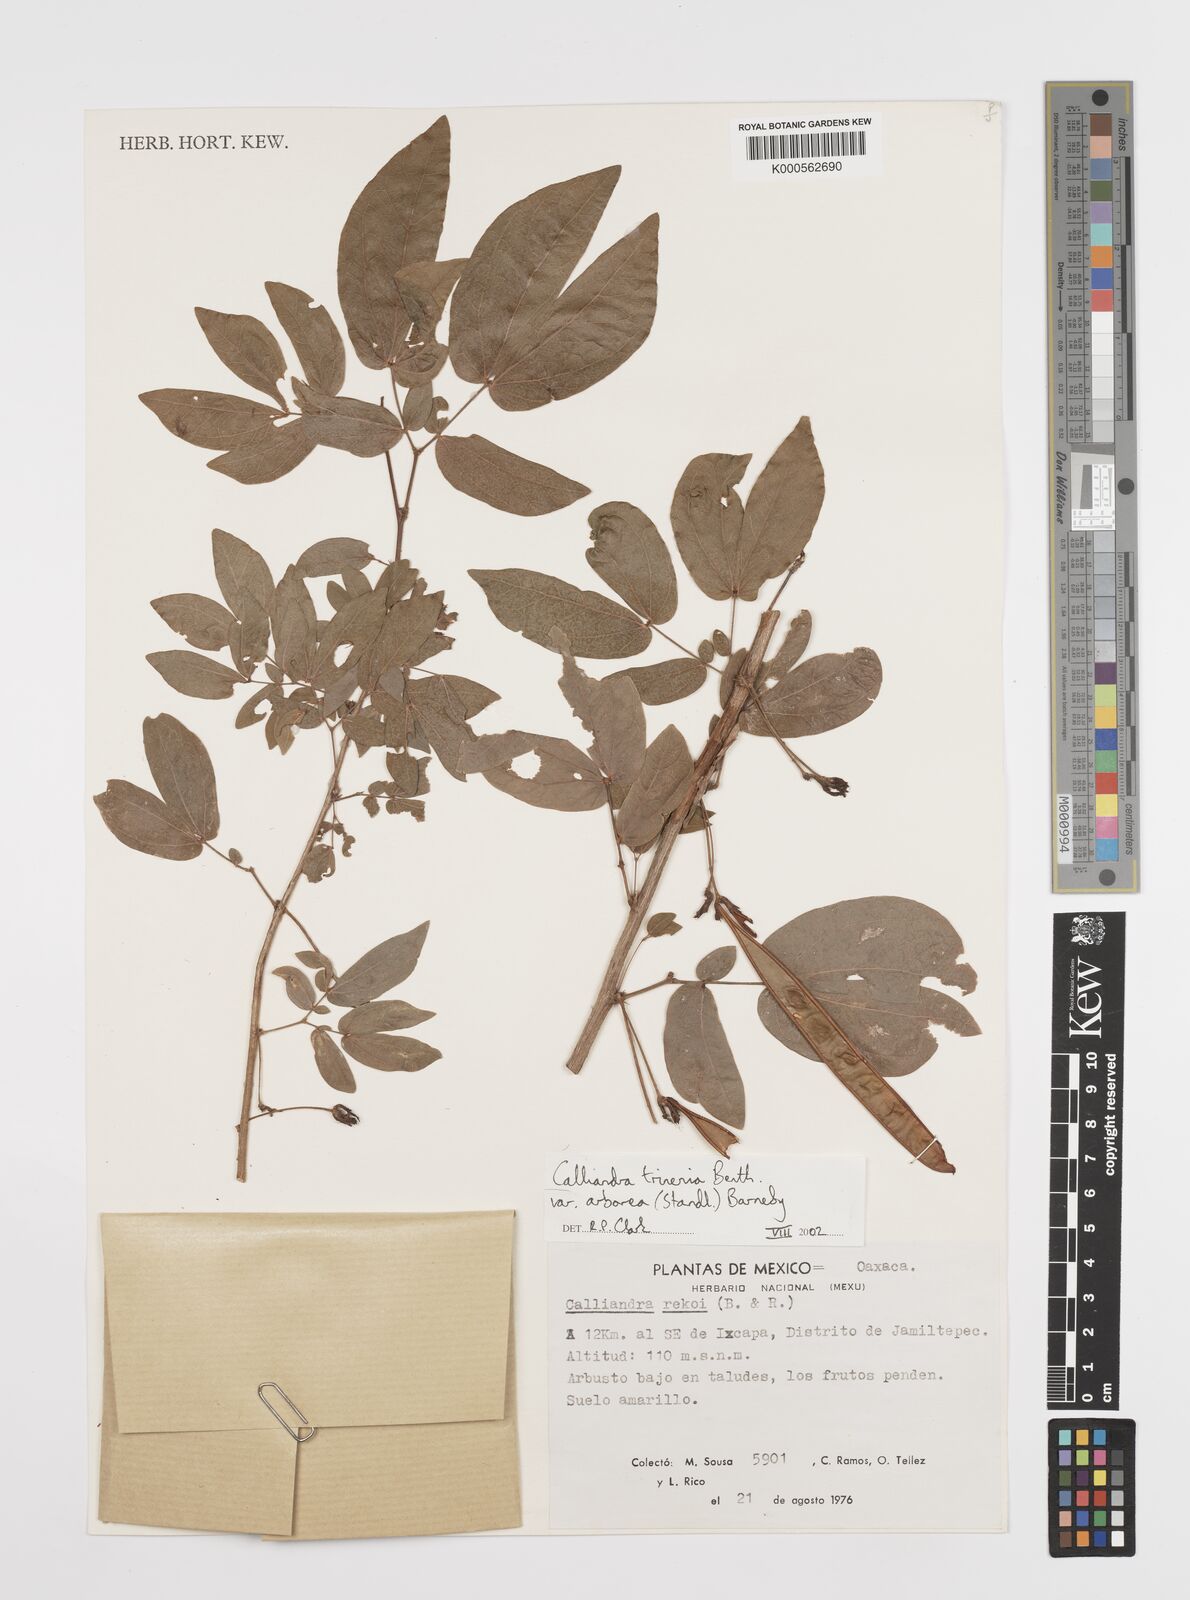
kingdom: Plantae
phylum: Tracheophyta
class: Magnoliopsida
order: Fabales
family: Fabaceae
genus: Calliandra
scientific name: Calliandra trinervia
